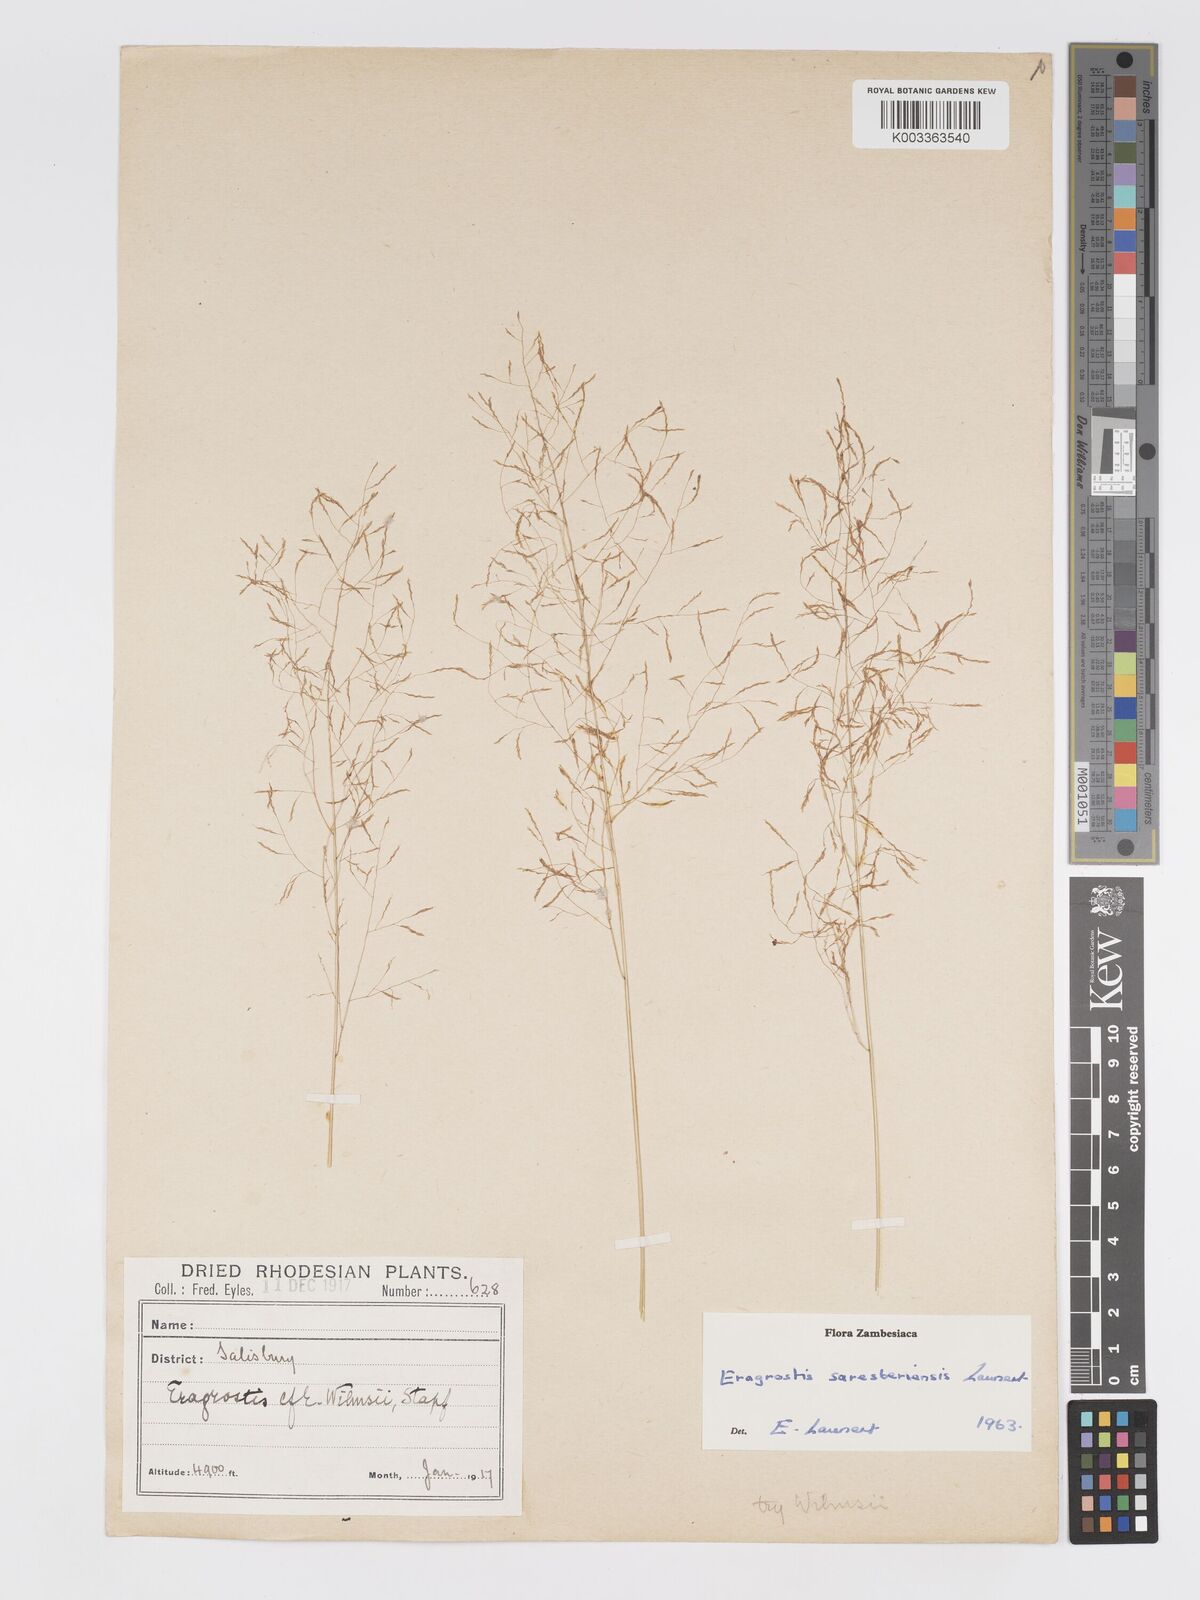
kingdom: Plantae
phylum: Tracheophyta
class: Liliopsida
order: Poales
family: Poaceae
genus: Eragrostis
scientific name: Eragrostis saresberiensis
